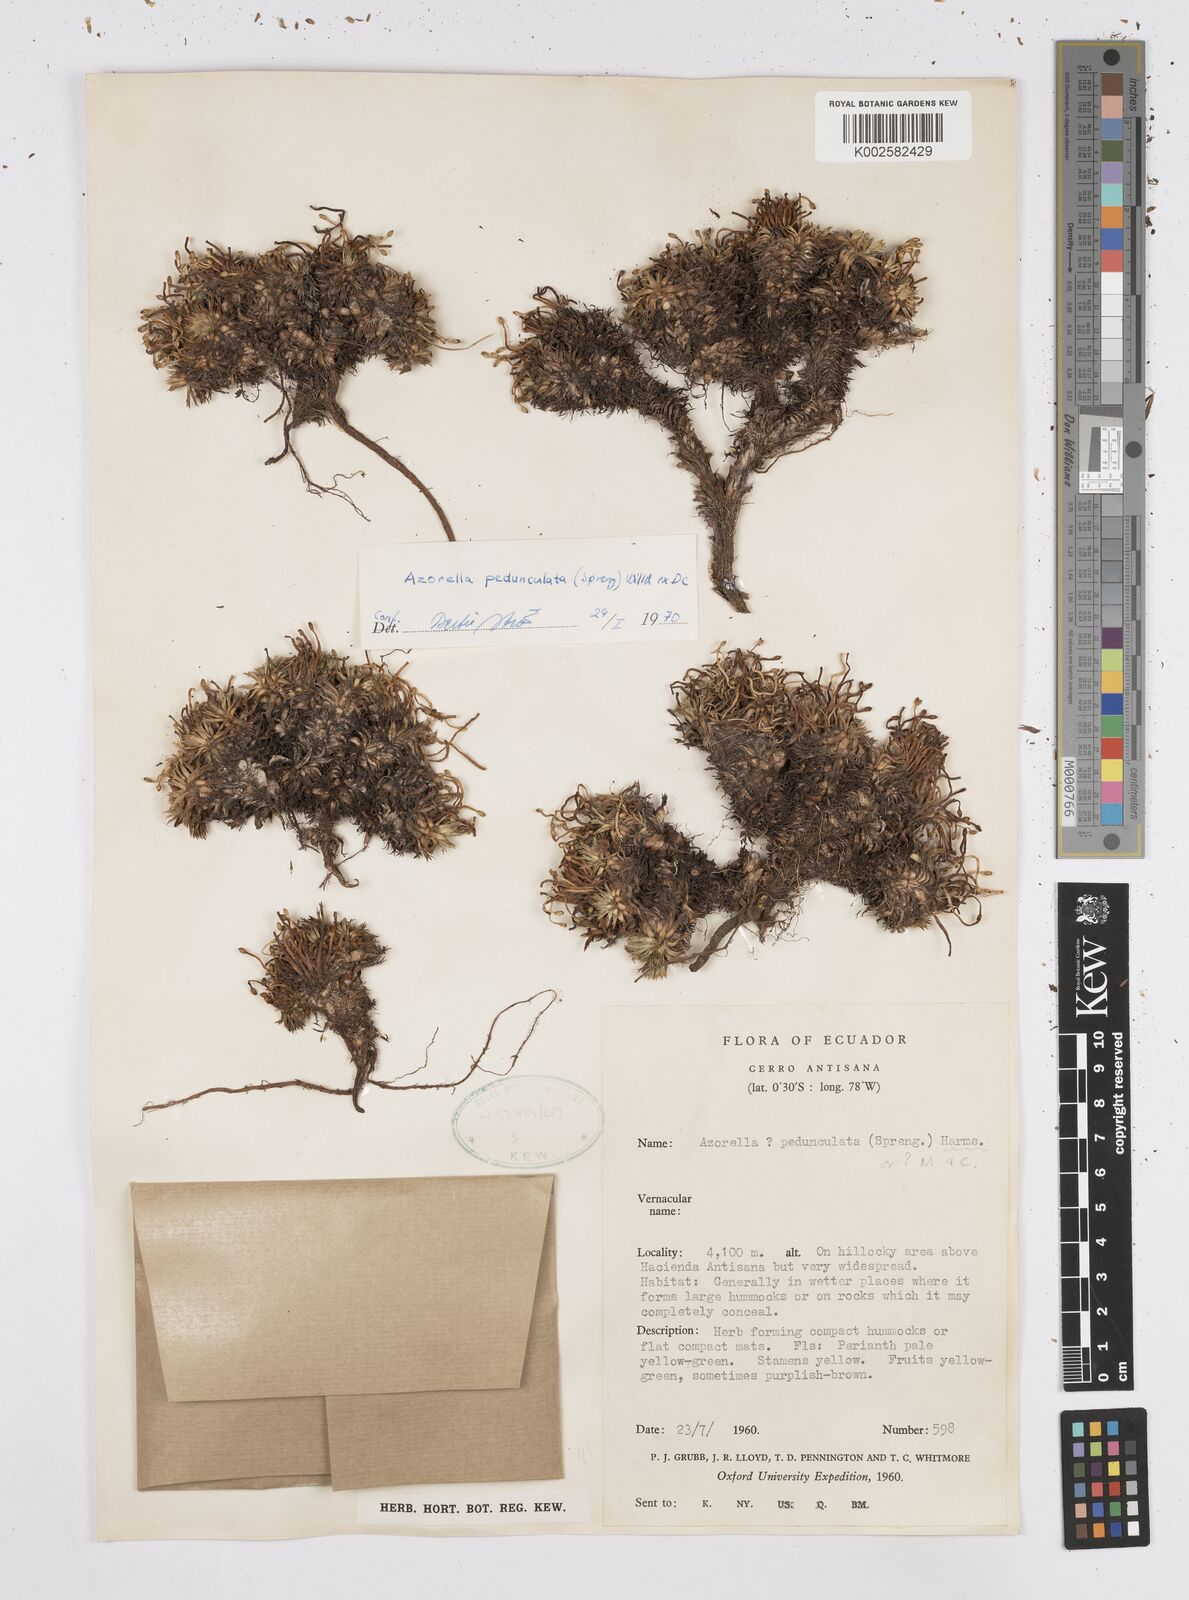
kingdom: Plantae
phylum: Tracheophyta
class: Magnoliopsida
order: Apiales
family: Apiaceae
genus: Azorella
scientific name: Azorella pedunculata
